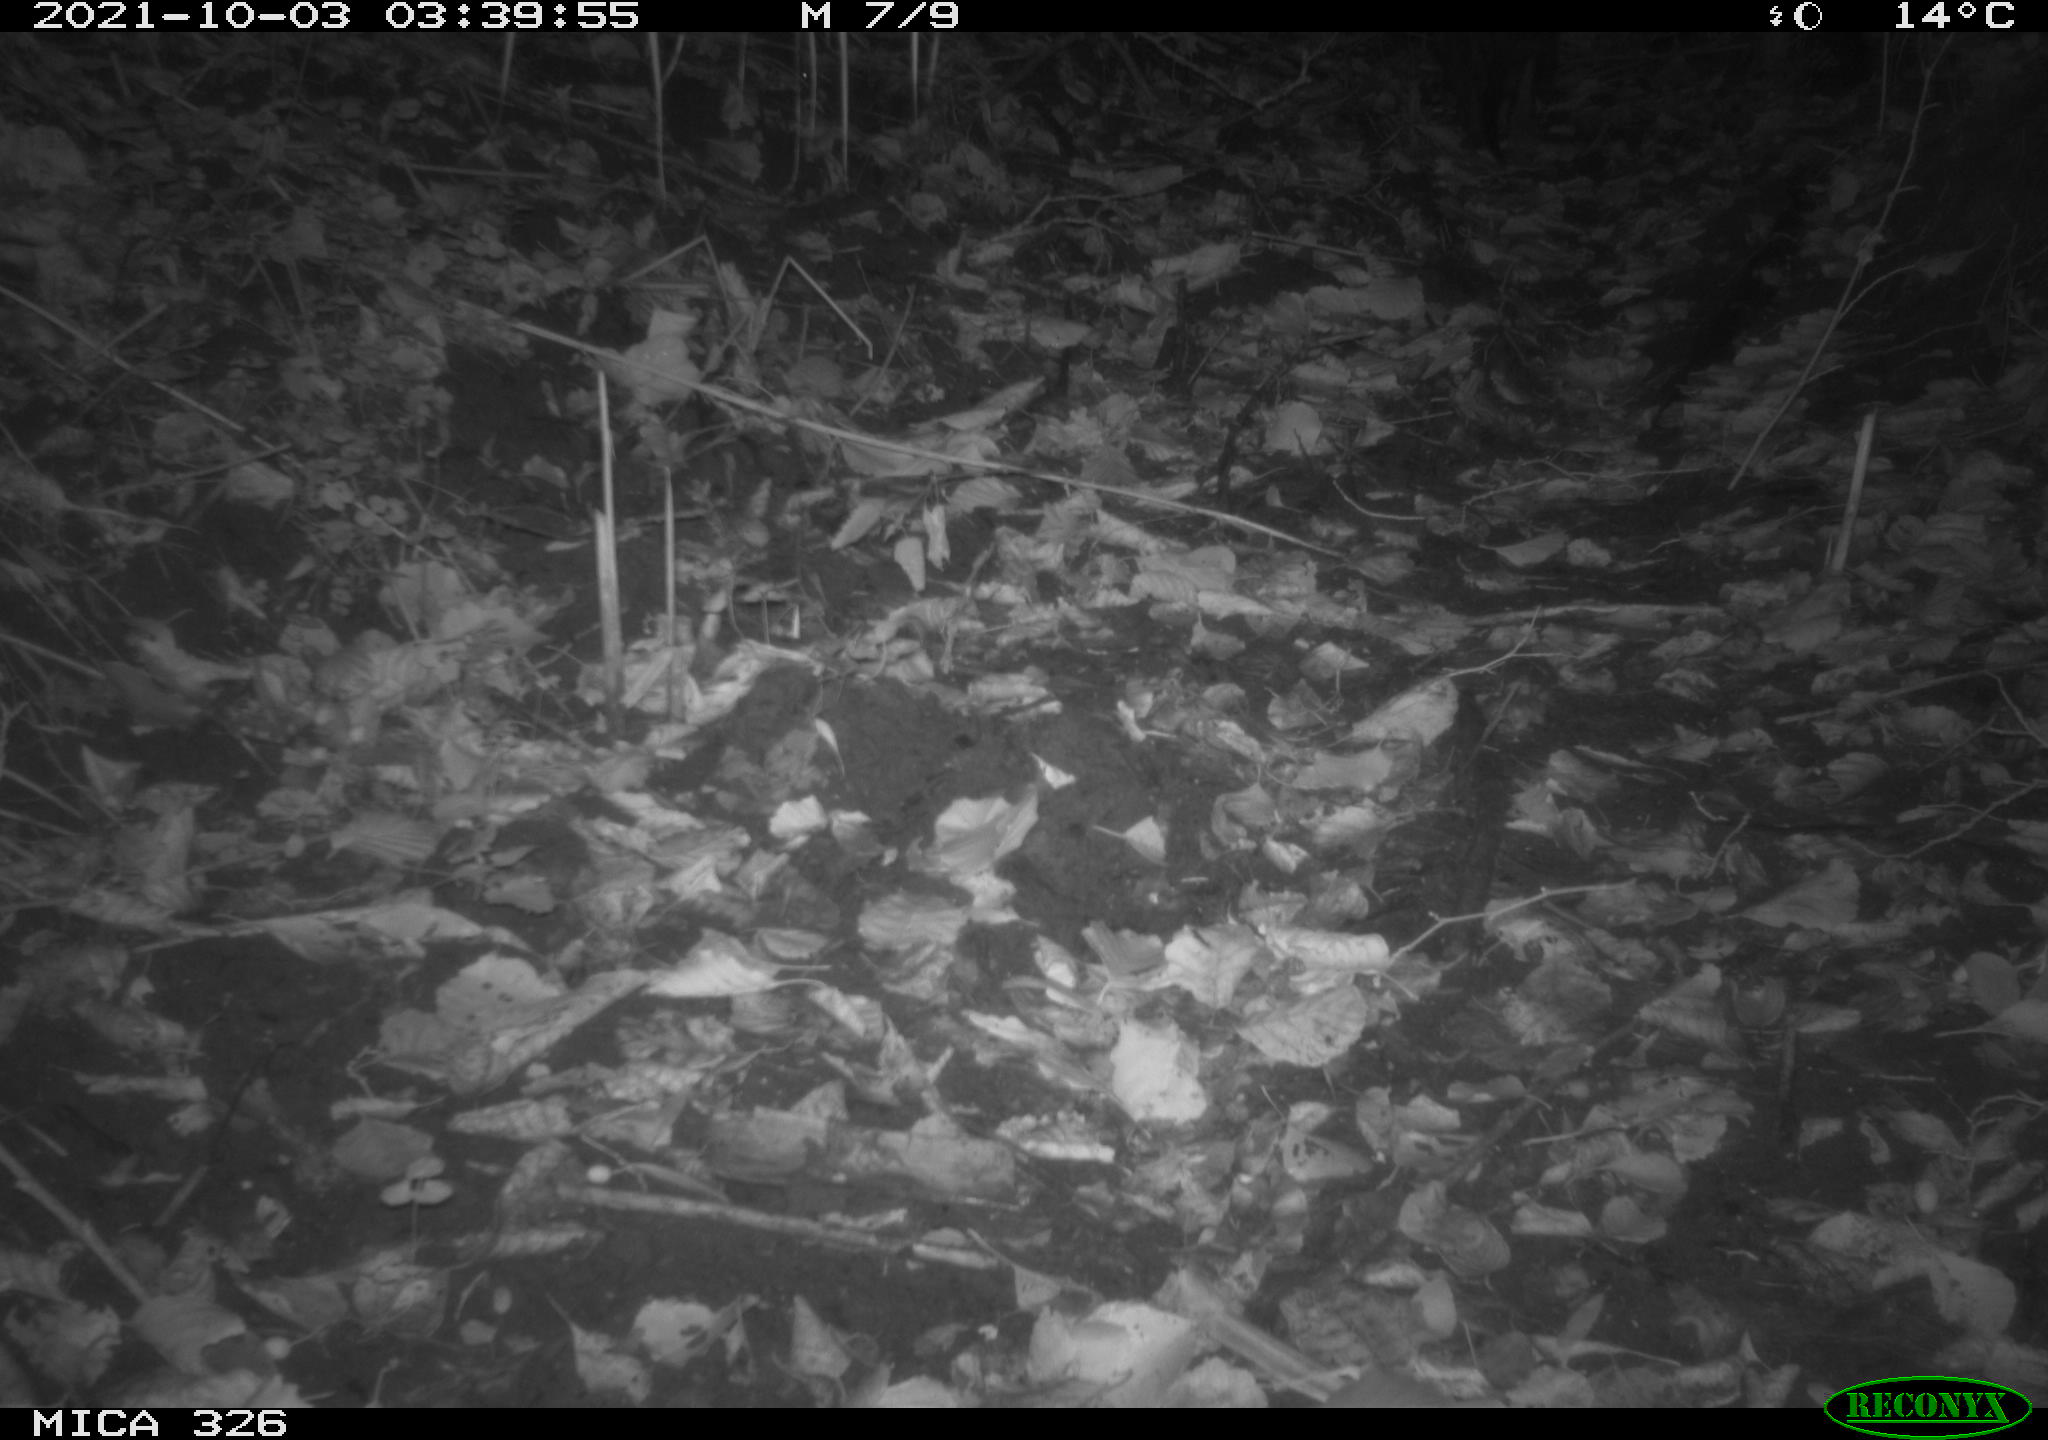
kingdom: Animalia
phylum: Chordata
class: Mammalia
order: Rodentia
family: Myocastoridae
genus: Myocastor
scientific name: Myocastor coypus
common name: Coypu
